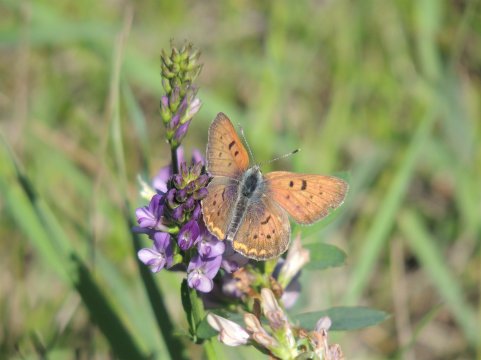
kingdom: Animalia
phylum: Arthropoda
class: Insecta
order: Lepidoptera
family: Sesiidae
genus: Sesia
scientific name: Sesia Lycaena helloides
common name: Purplish Copper
